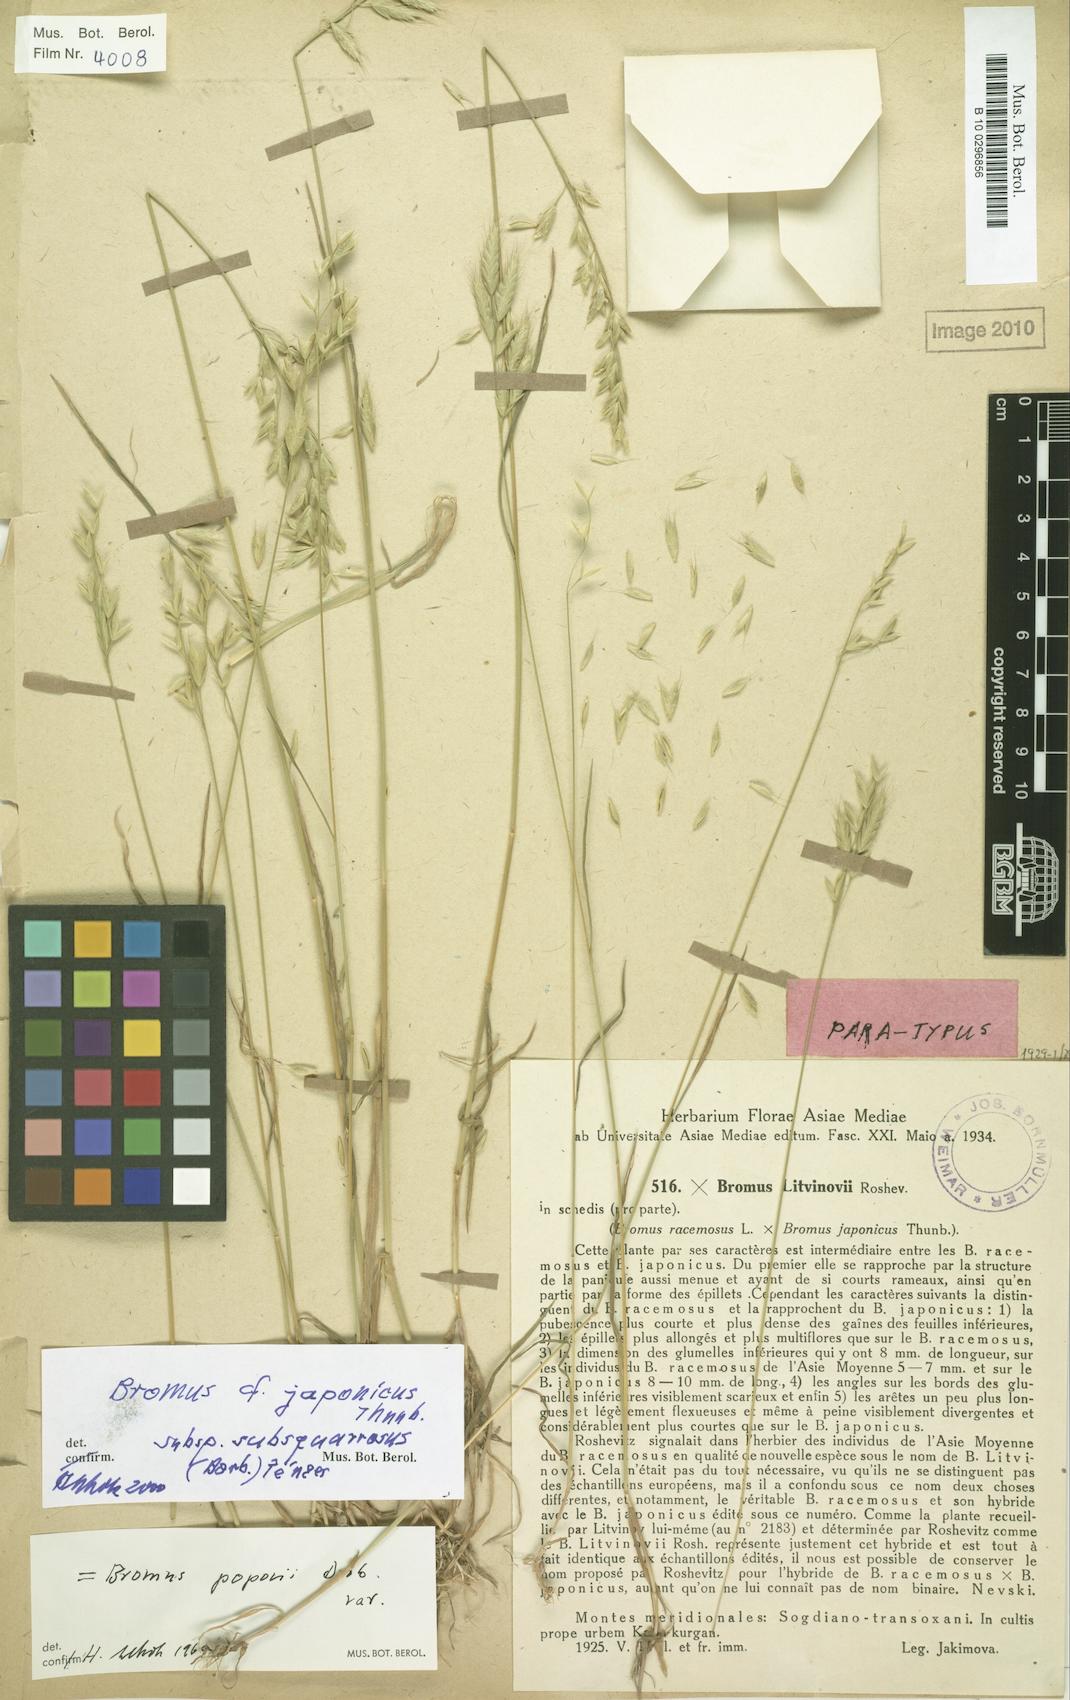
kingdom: Plantae
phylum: Tracheophyta
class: Liliopsida
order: Poales
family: Poaceae
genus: Bromus
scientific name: Bromus litvinovii
